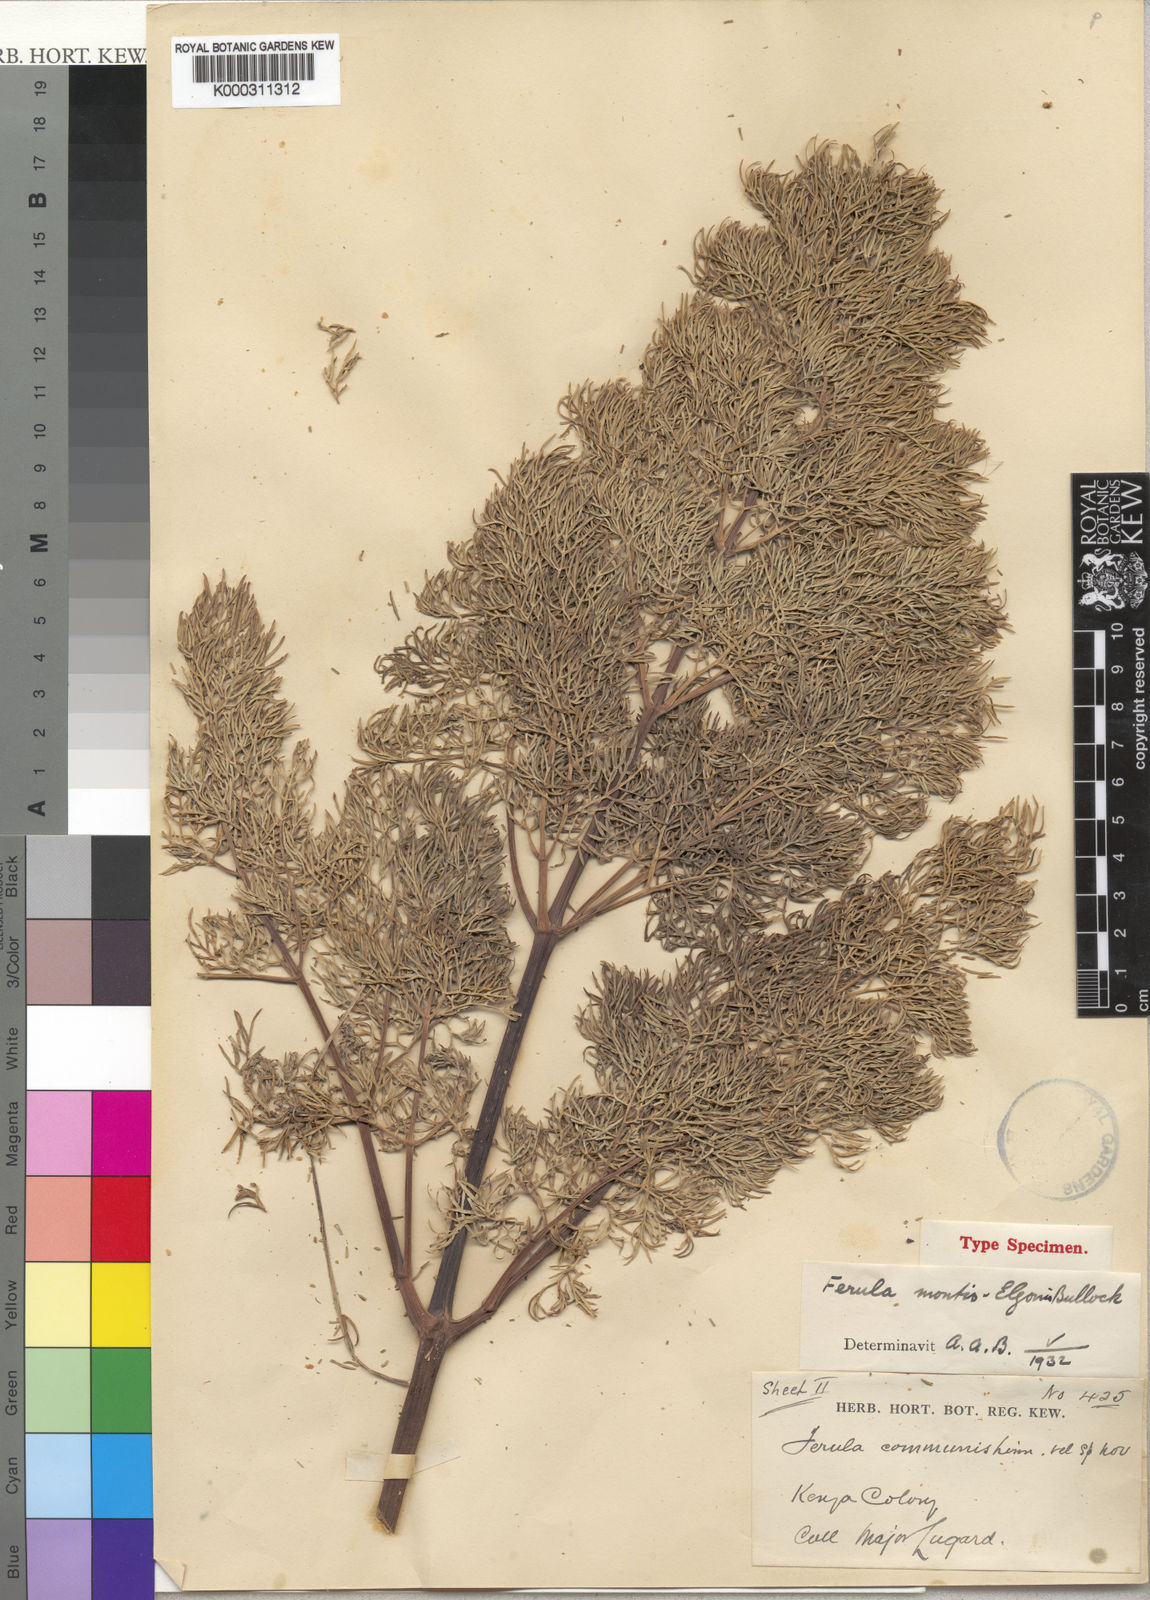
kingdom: Plantae
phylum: Tracheophyta
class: Magnoliopsida
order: Apiales
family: Apiaceae
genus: Ferula
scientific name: Ferula communis
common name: Giant fennel
